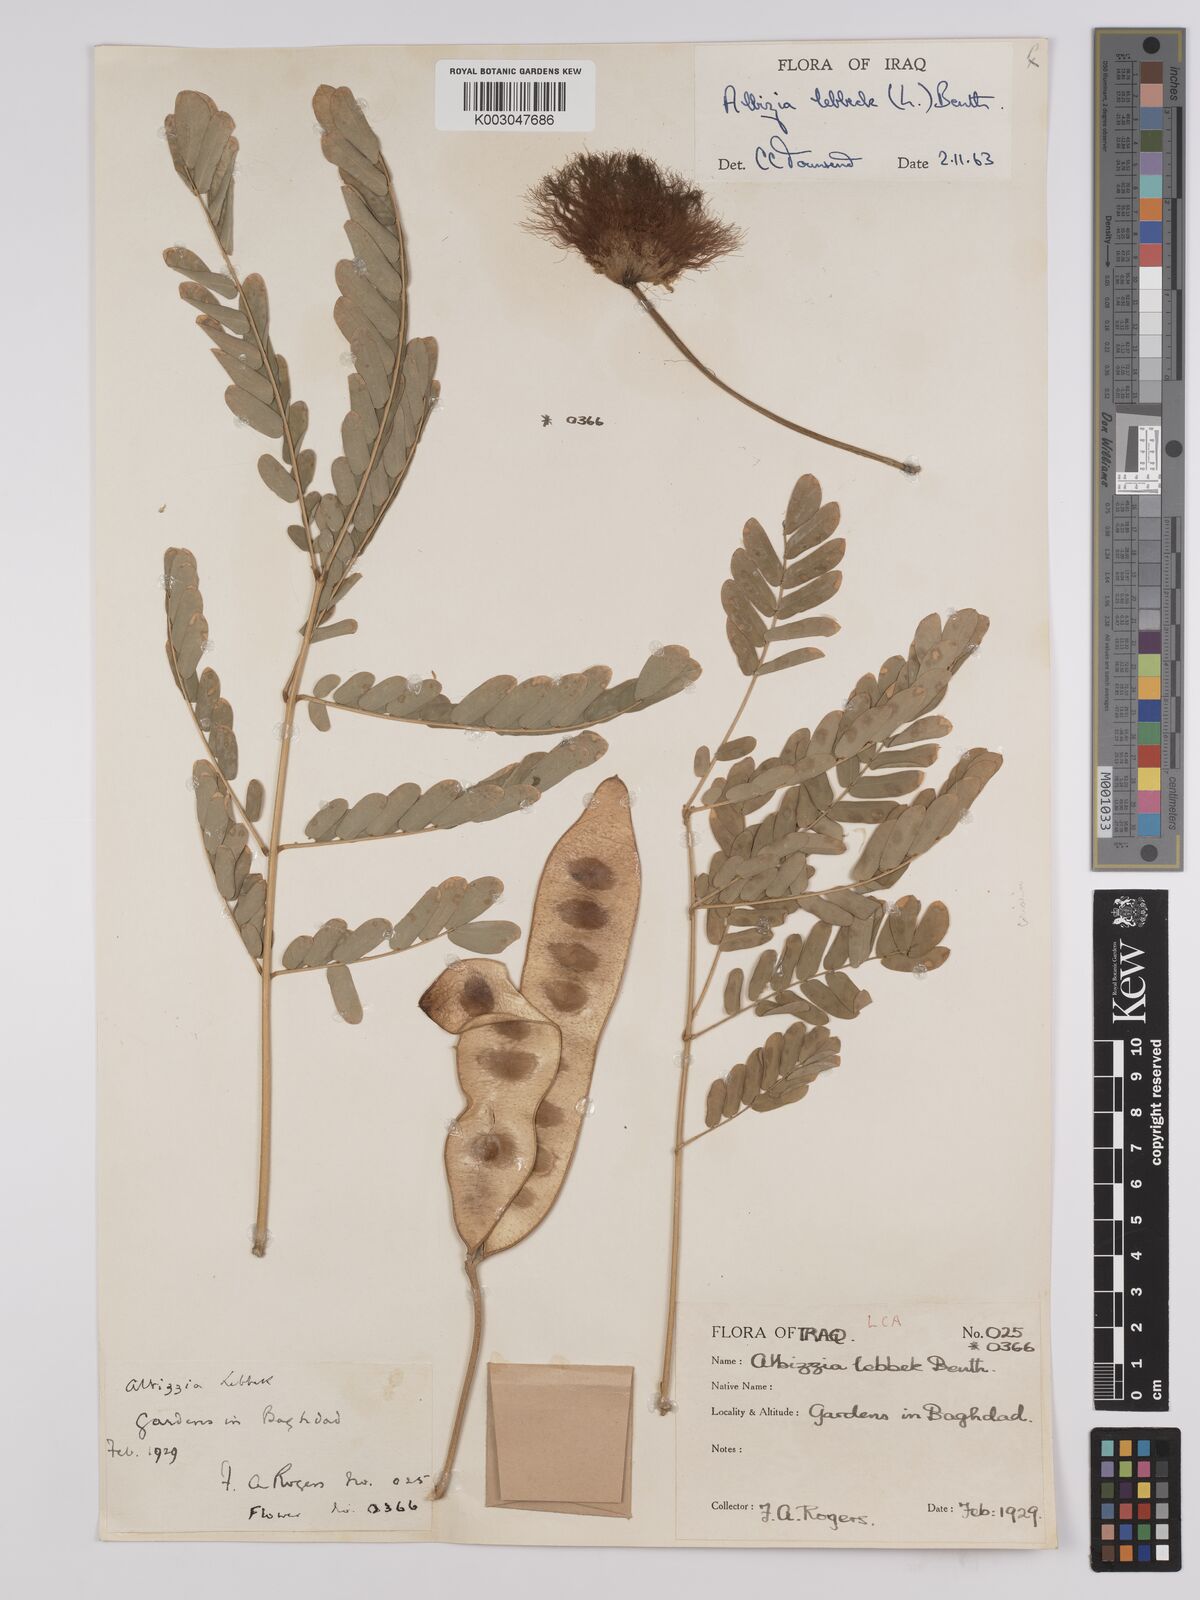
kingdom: Plantae
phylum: Tracheophyta
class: Magnoliopsida
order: Fabales
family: Fabaceae
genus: Albizia
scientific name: Albizia lebbeck
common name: Woman's tongue
